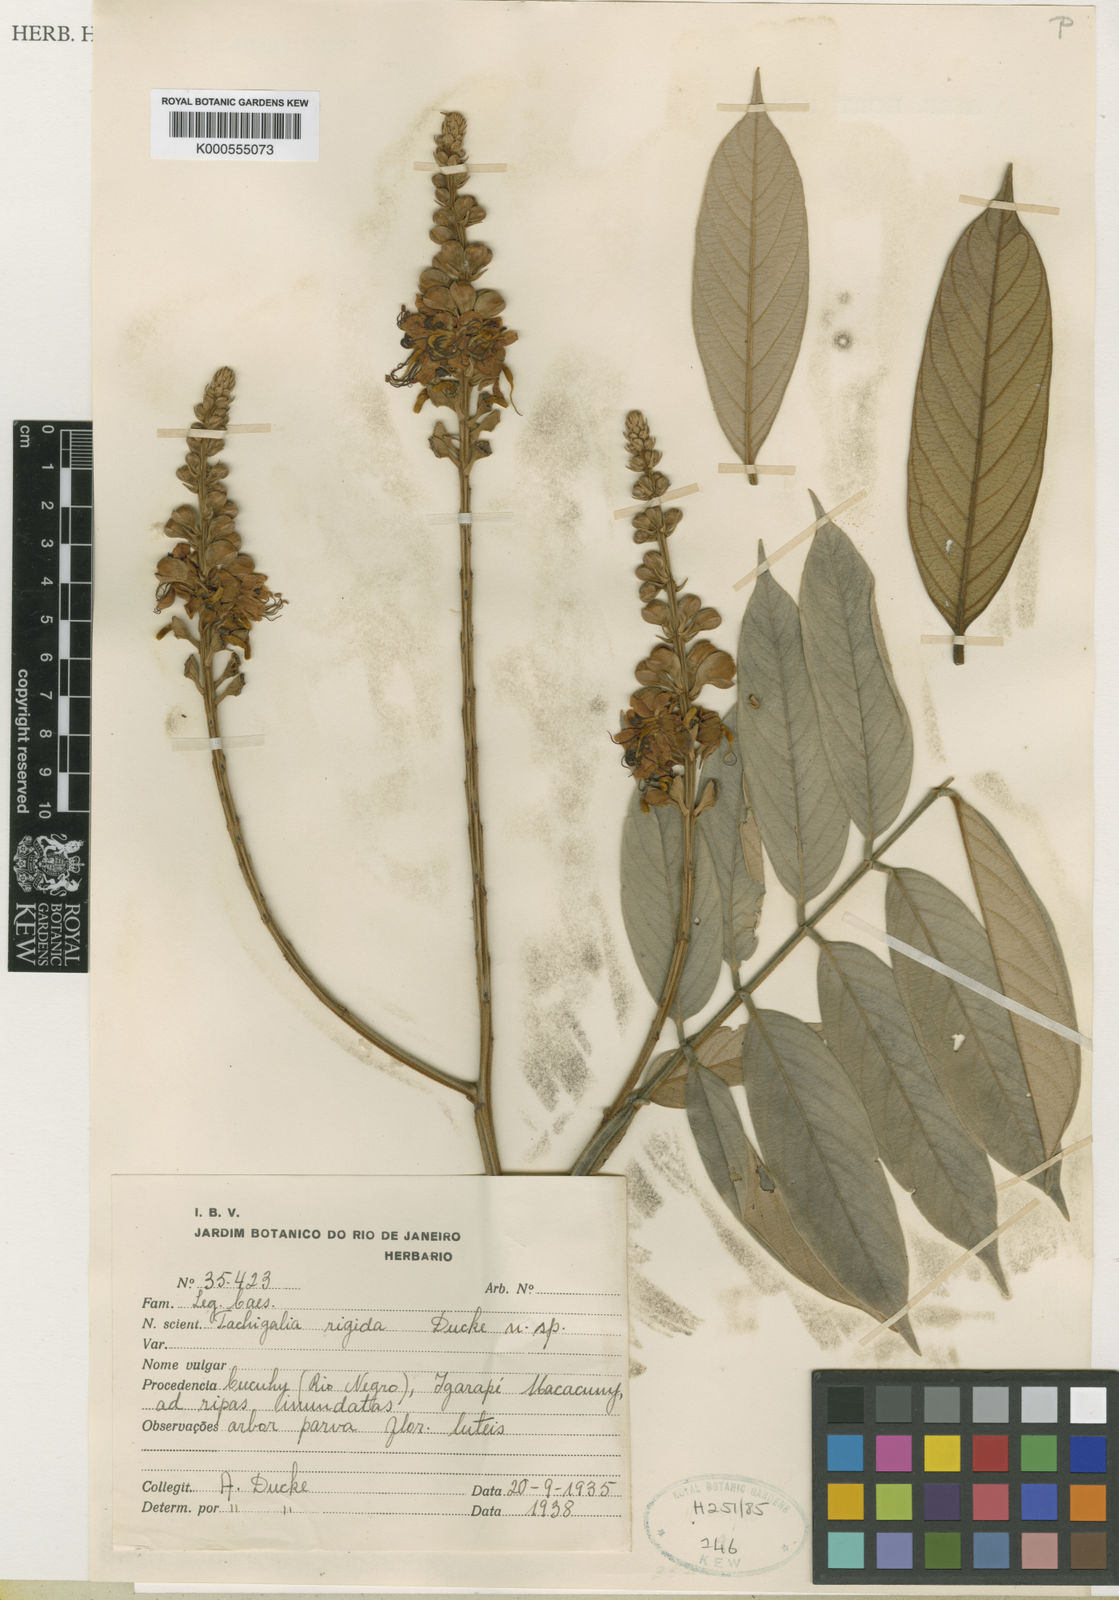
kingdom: Plantae
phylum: Tracheophyta
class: Magnoliopsida
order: Fabales
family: Fabaceae
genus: Tachigali
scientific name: Tachigali rigida
